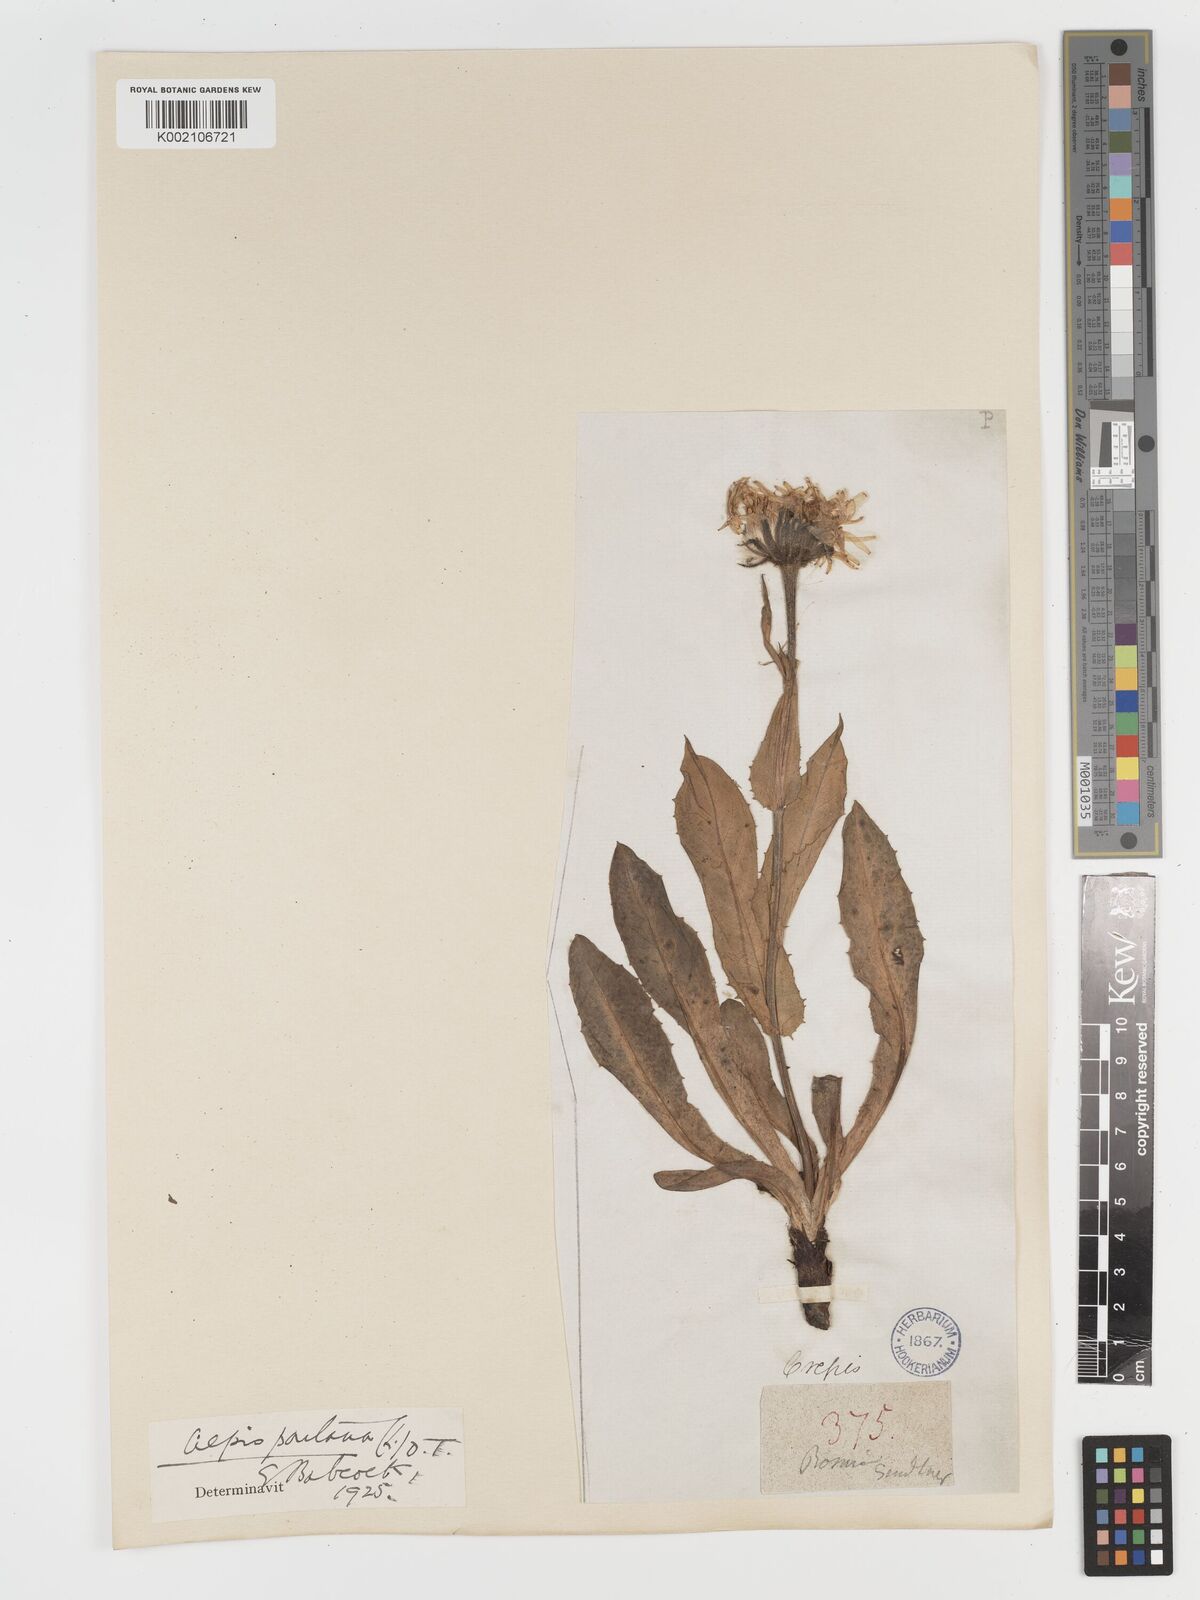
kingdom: Plantae
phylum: Tracheophyta
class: Magnoliopsida
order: Asterales
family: Asteraceae
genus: Crepis
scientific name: Crepis pontana
